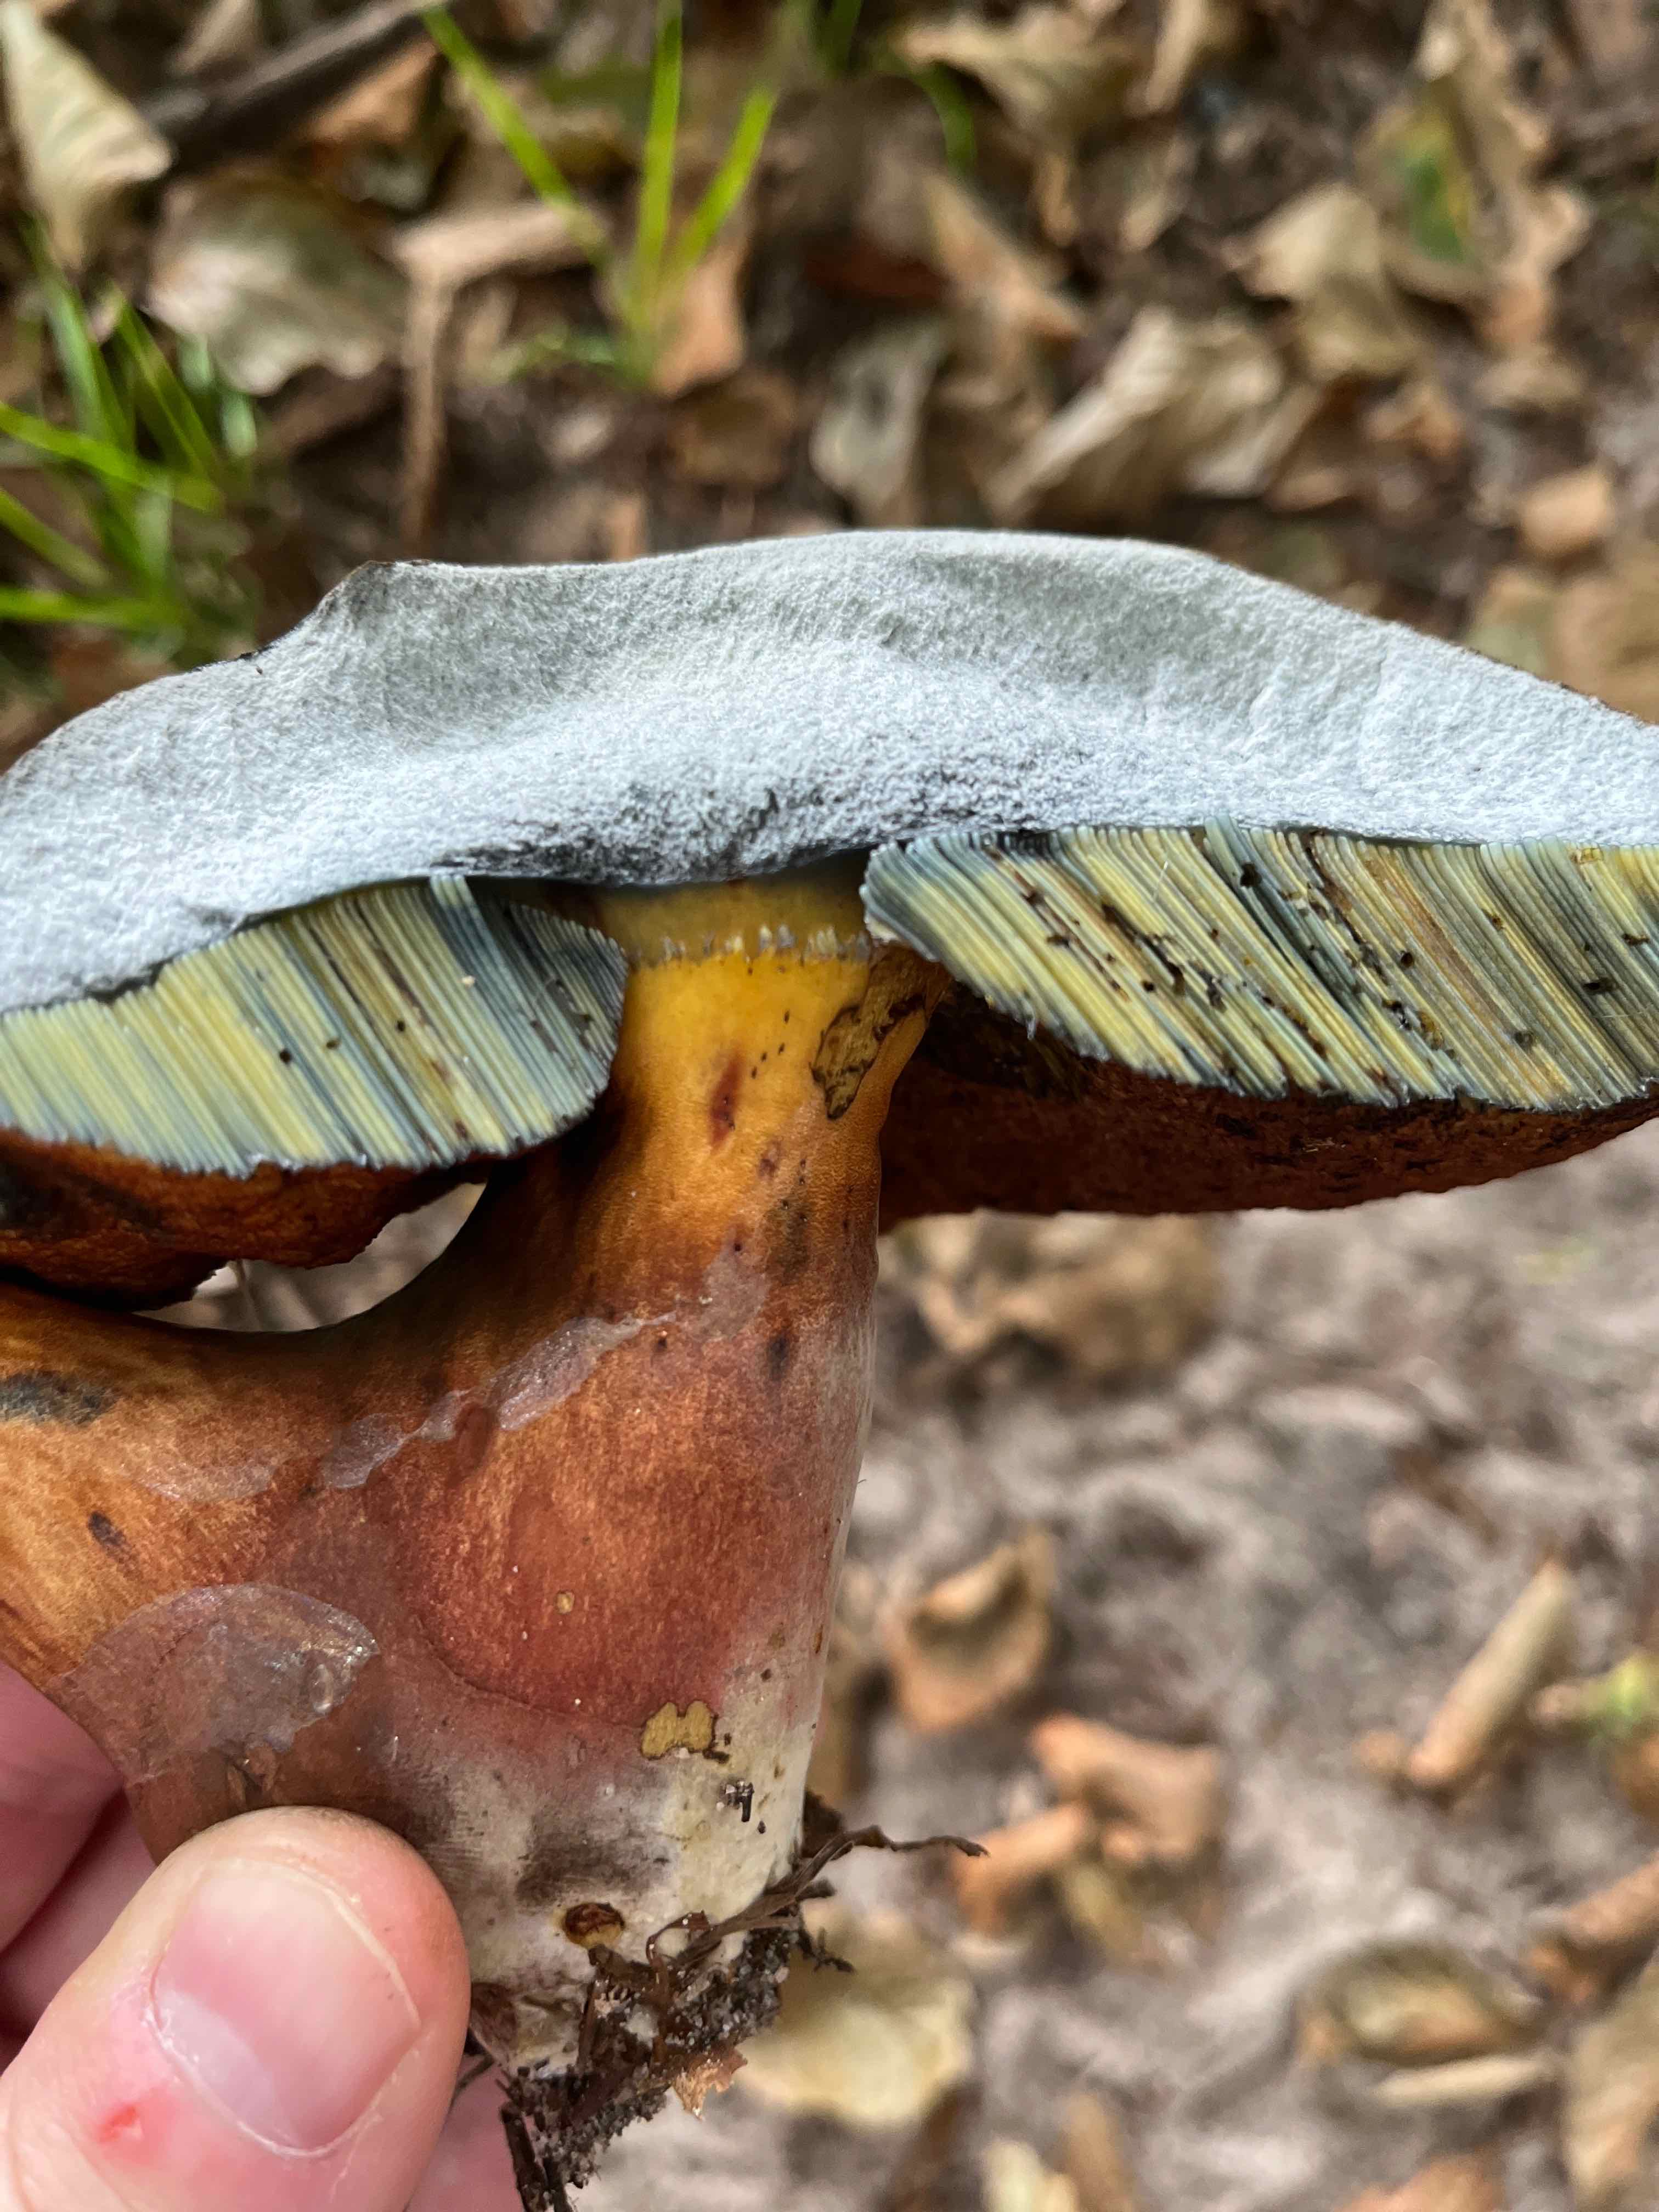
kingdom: Fungi
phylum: Basidiomycota
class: Agaricomycetes
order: Boletales
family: Boletaceae
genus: Neoboletus
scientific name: Neoboletus xanthopus
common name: finprikket indigorørhat
